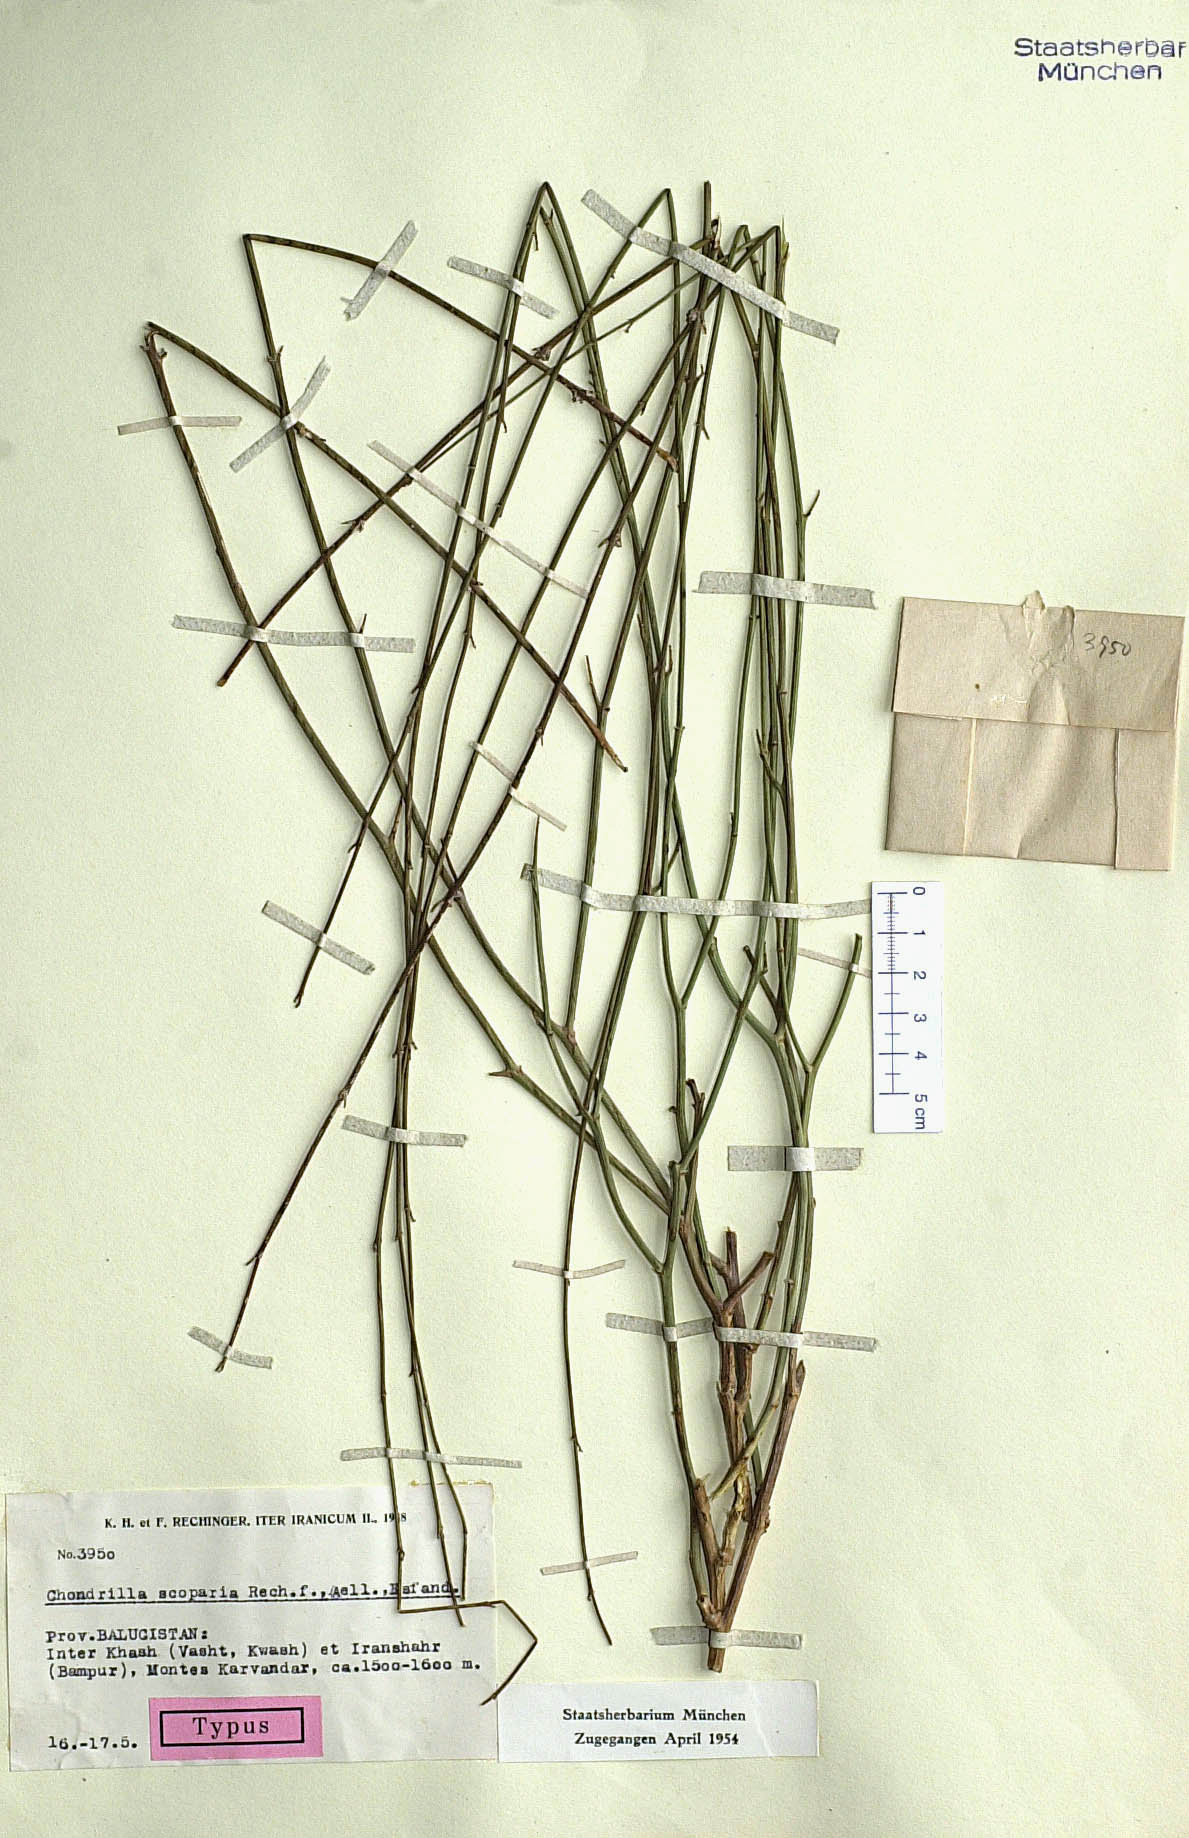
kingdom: Plantae
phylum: Tracheophyta
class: Magnoliopsida
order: Asterales
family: Asteraceae
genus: Lactuca
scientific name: Lactuca piestocarpa
